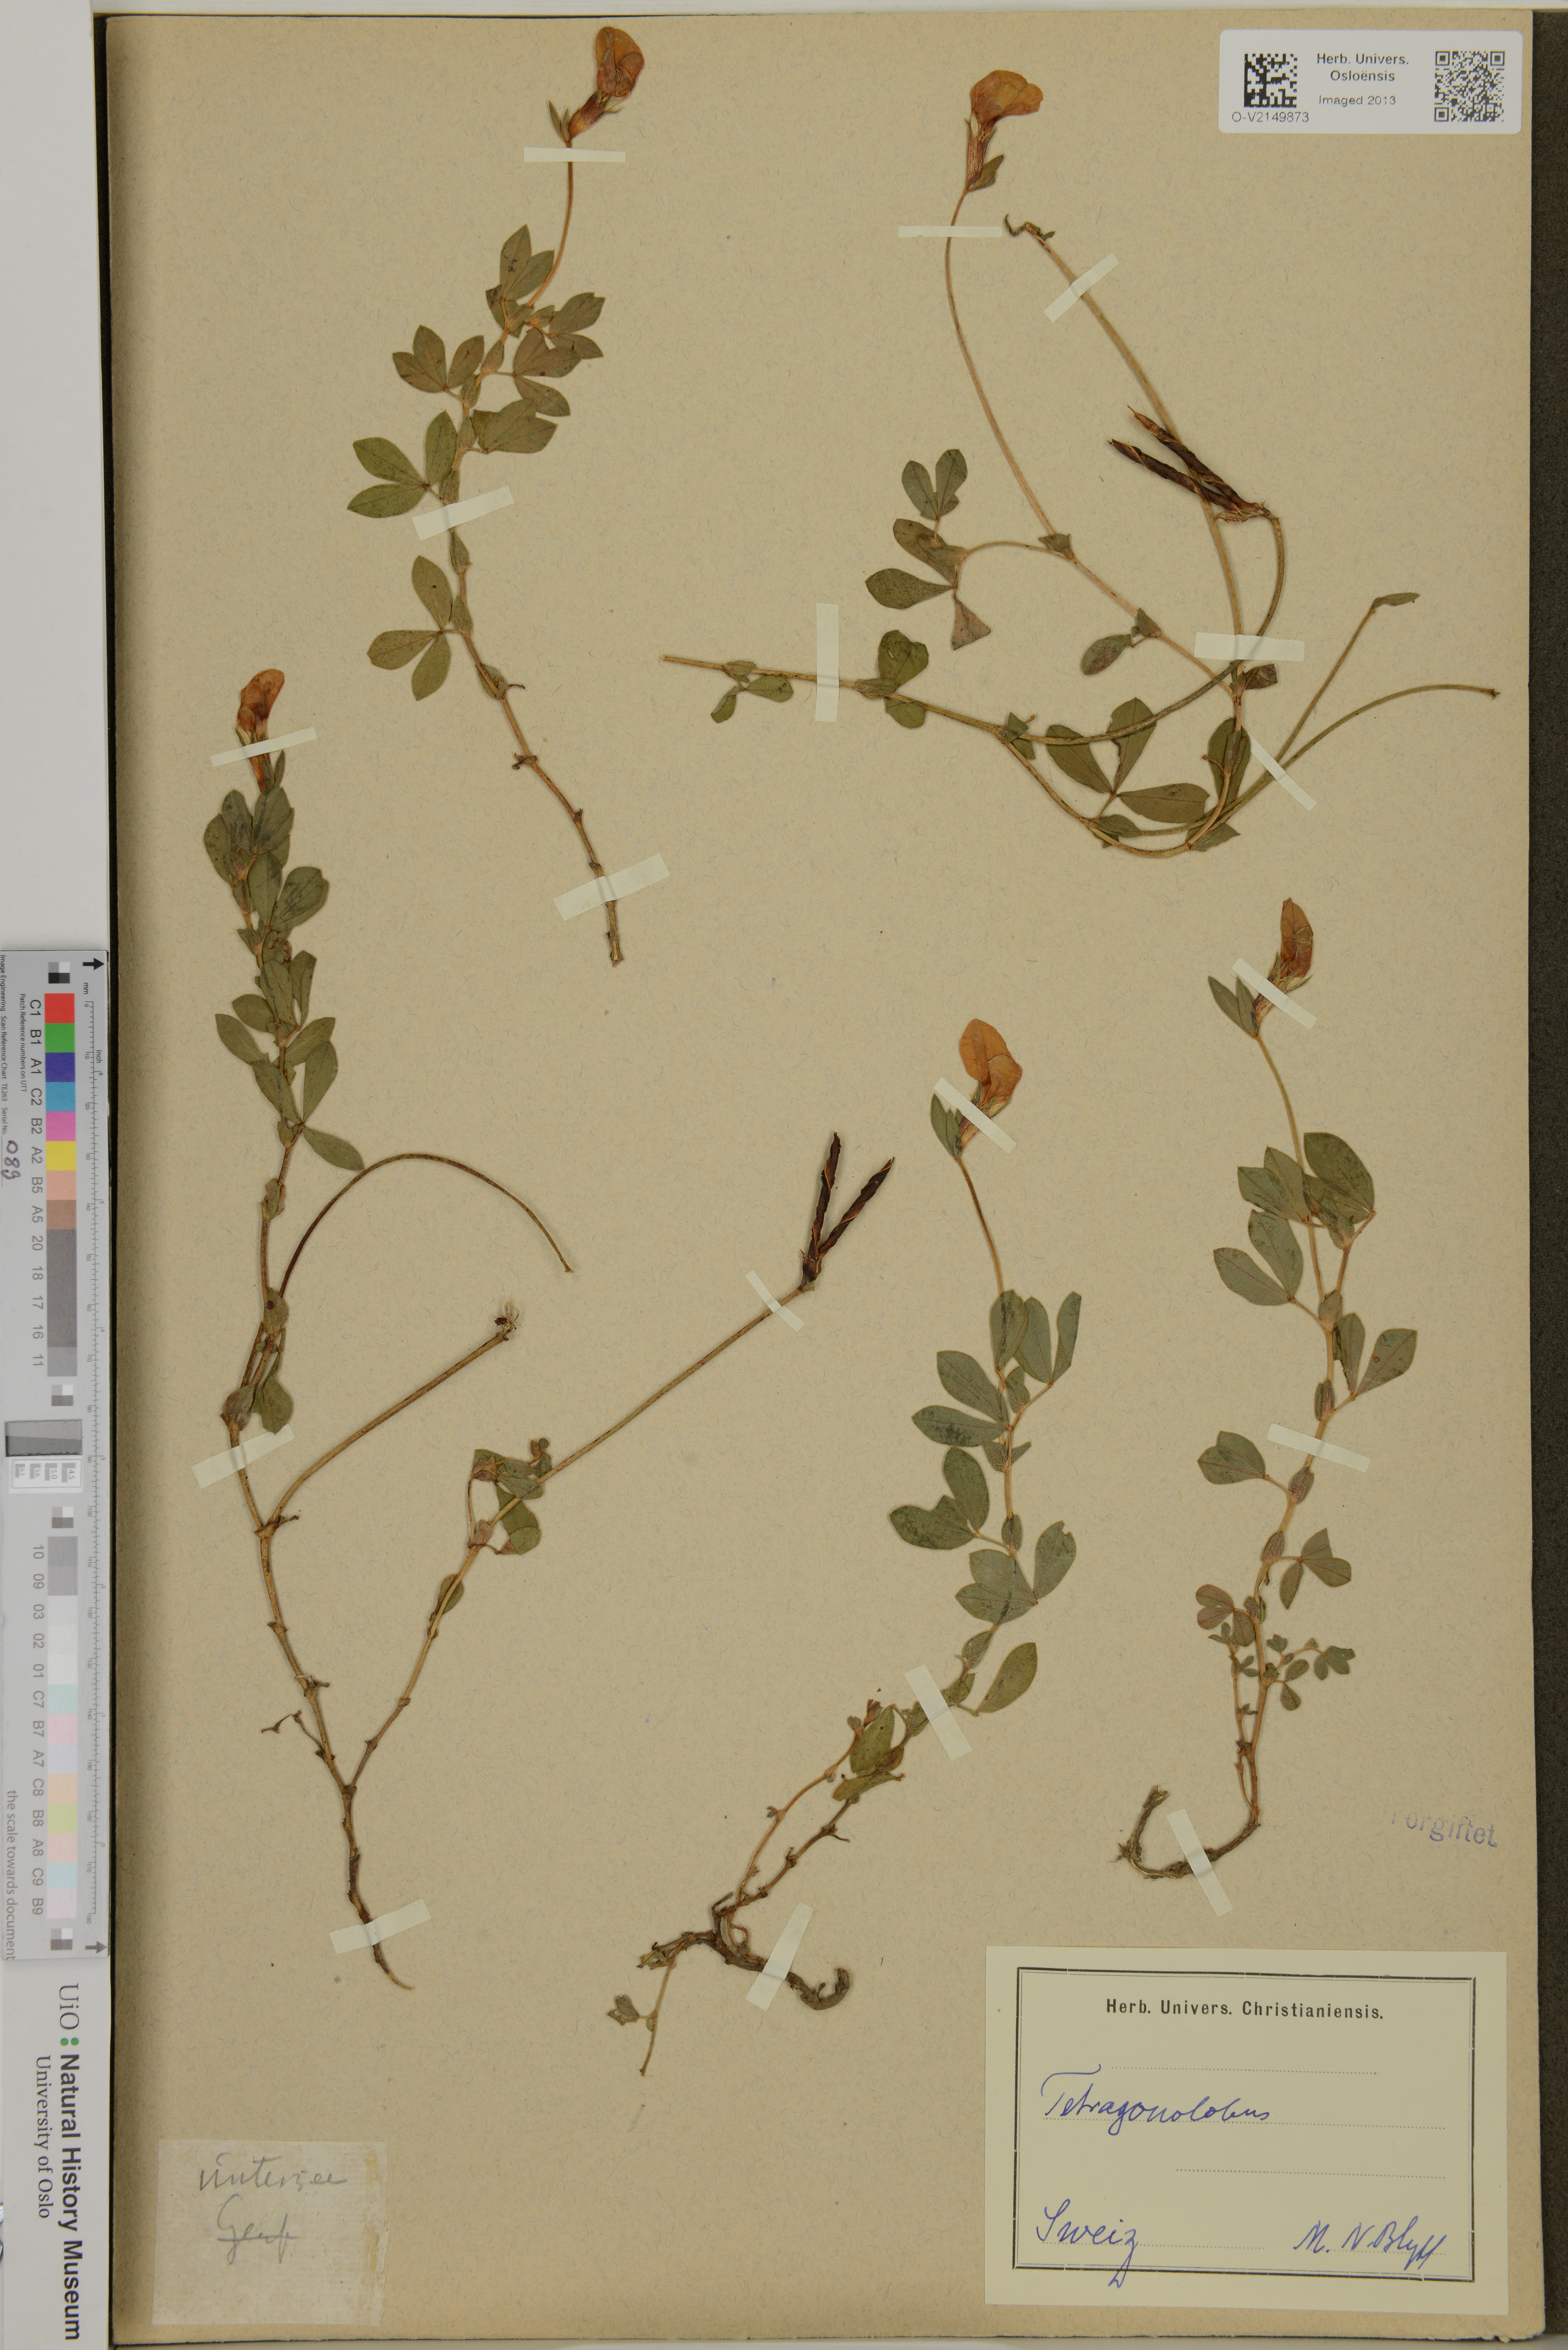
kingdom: Plantae
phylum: Tracheophyta
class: Magnoliopsida
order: Fabales
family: Fabaceae
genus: Lotus
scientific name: Lotus tetragonolobus
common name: Asparagus-pea
